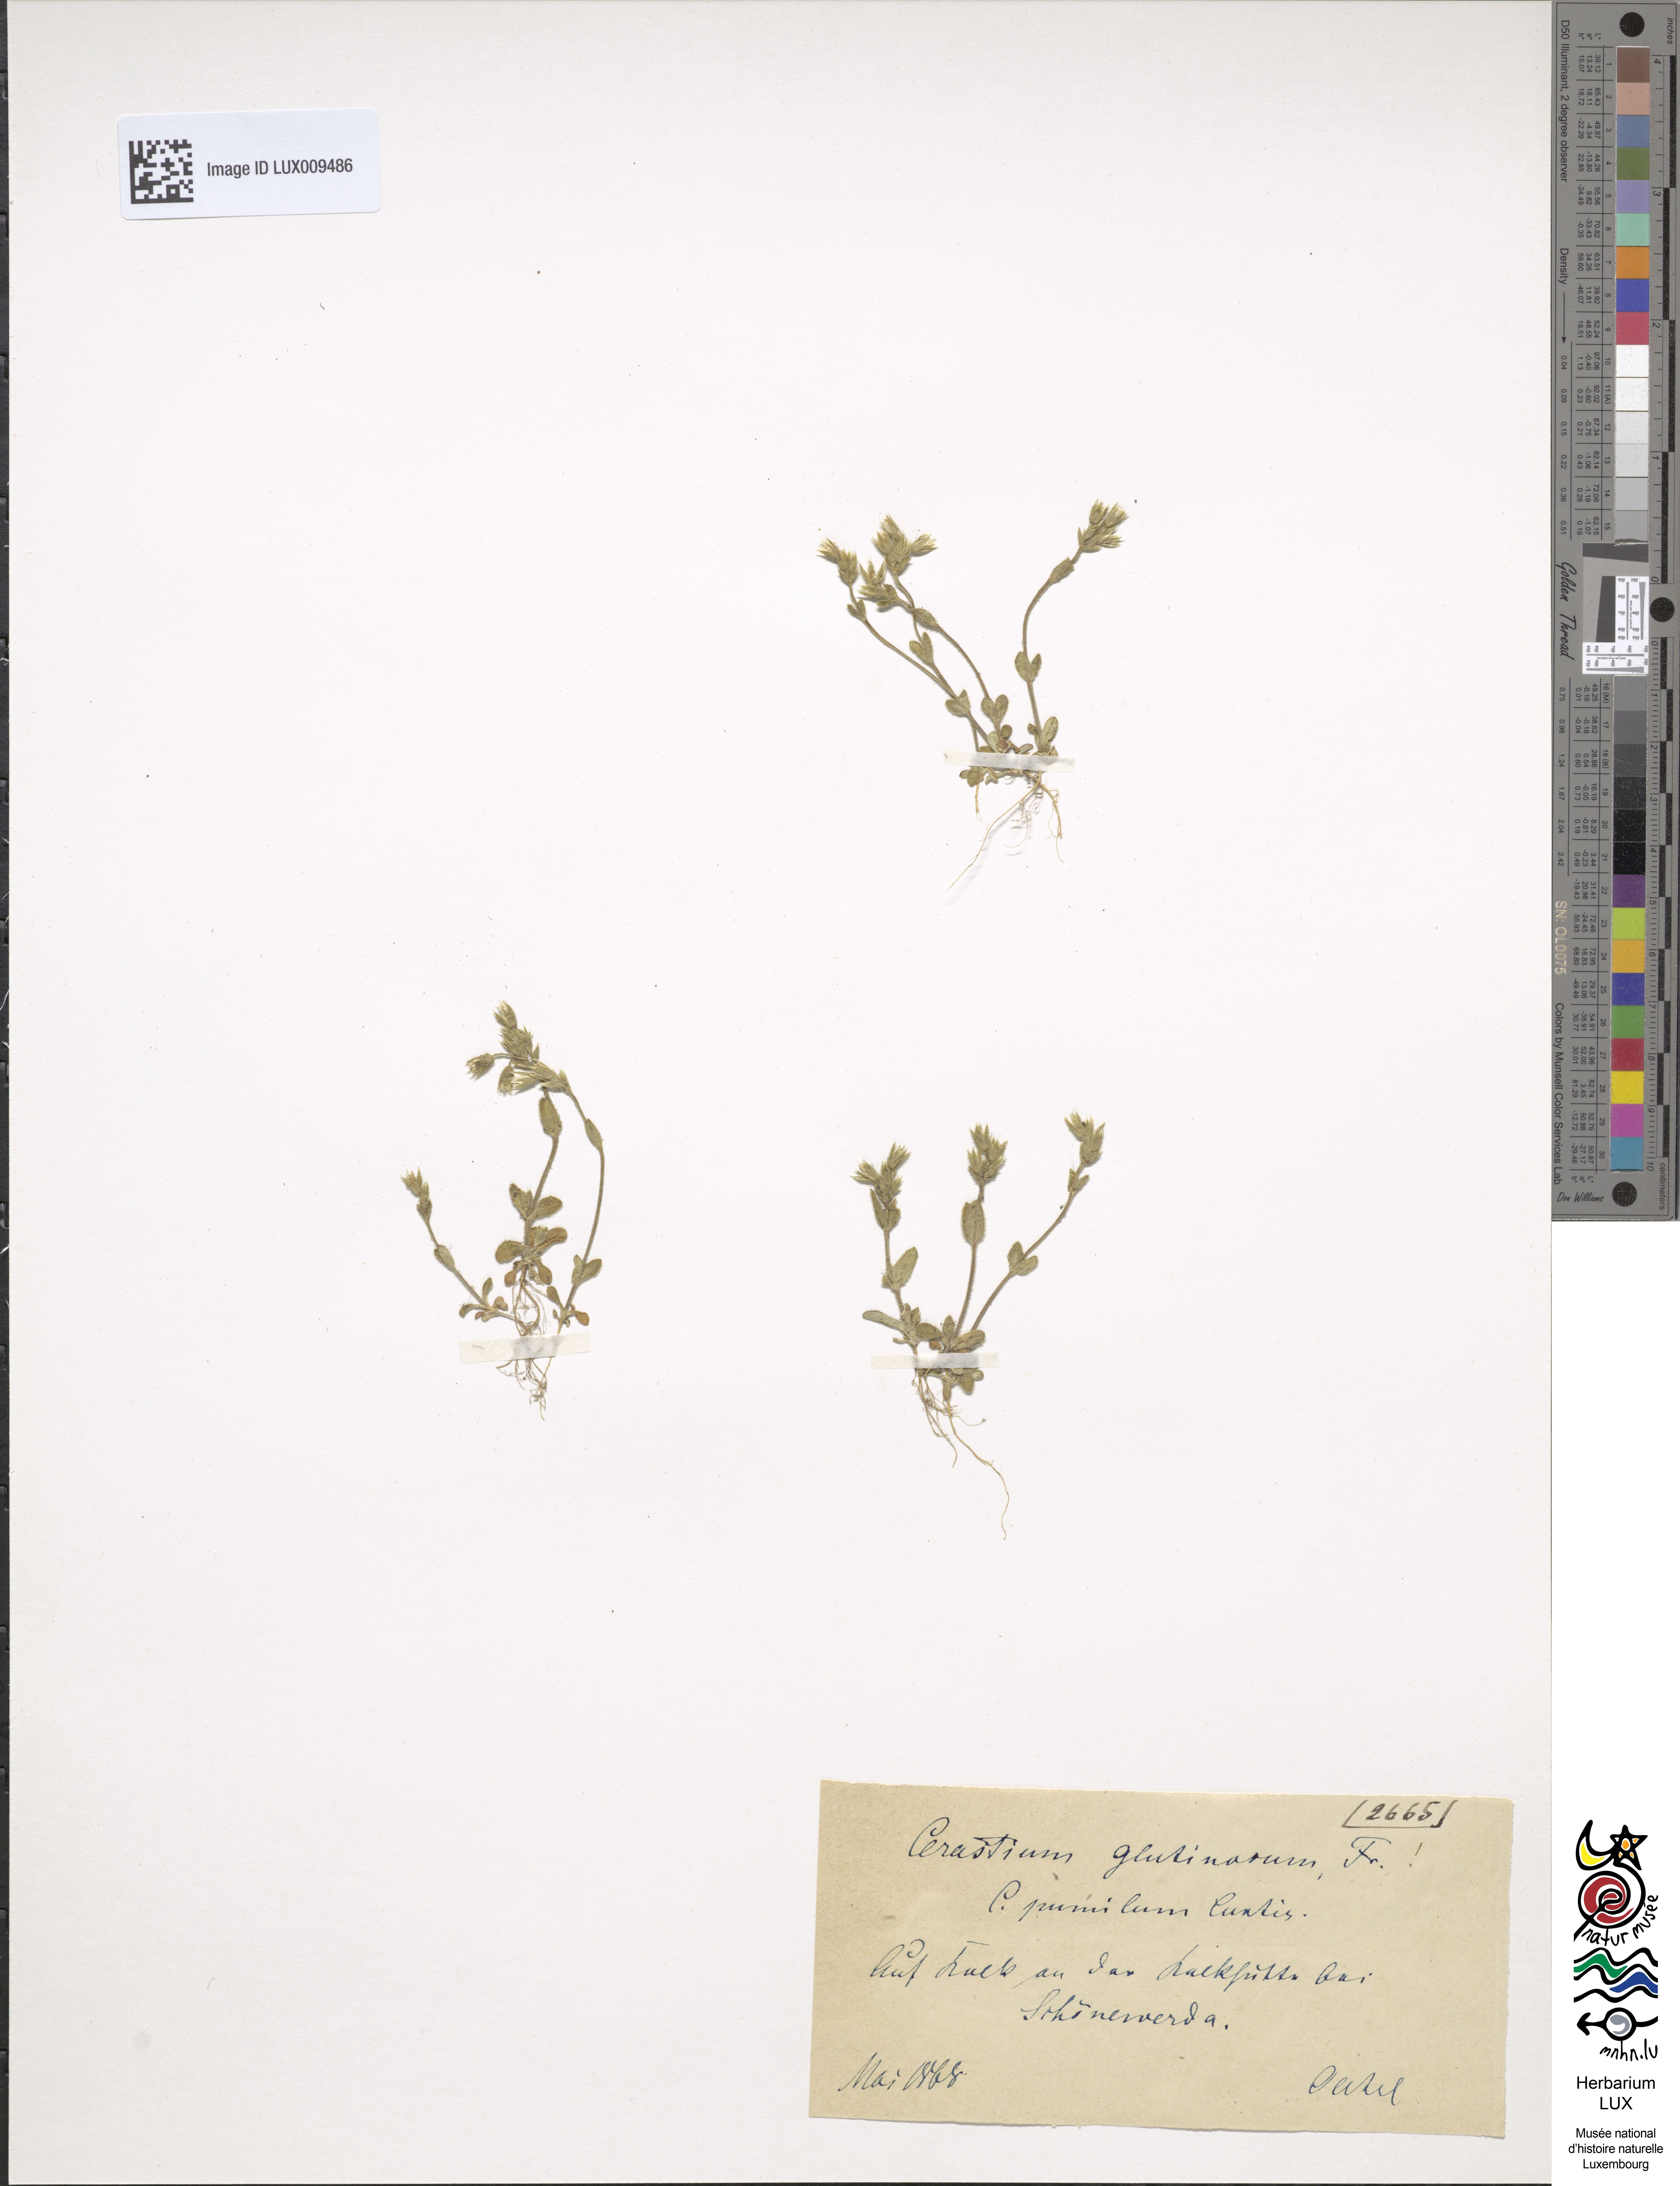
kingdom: Plantae
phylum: Tracheophyta
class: Magnoliopsida
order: Caryophyllales
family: Caryophyllaceae
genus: Cerastium
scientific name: Cerastium pumilum
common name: Dwarf mouse-ear
